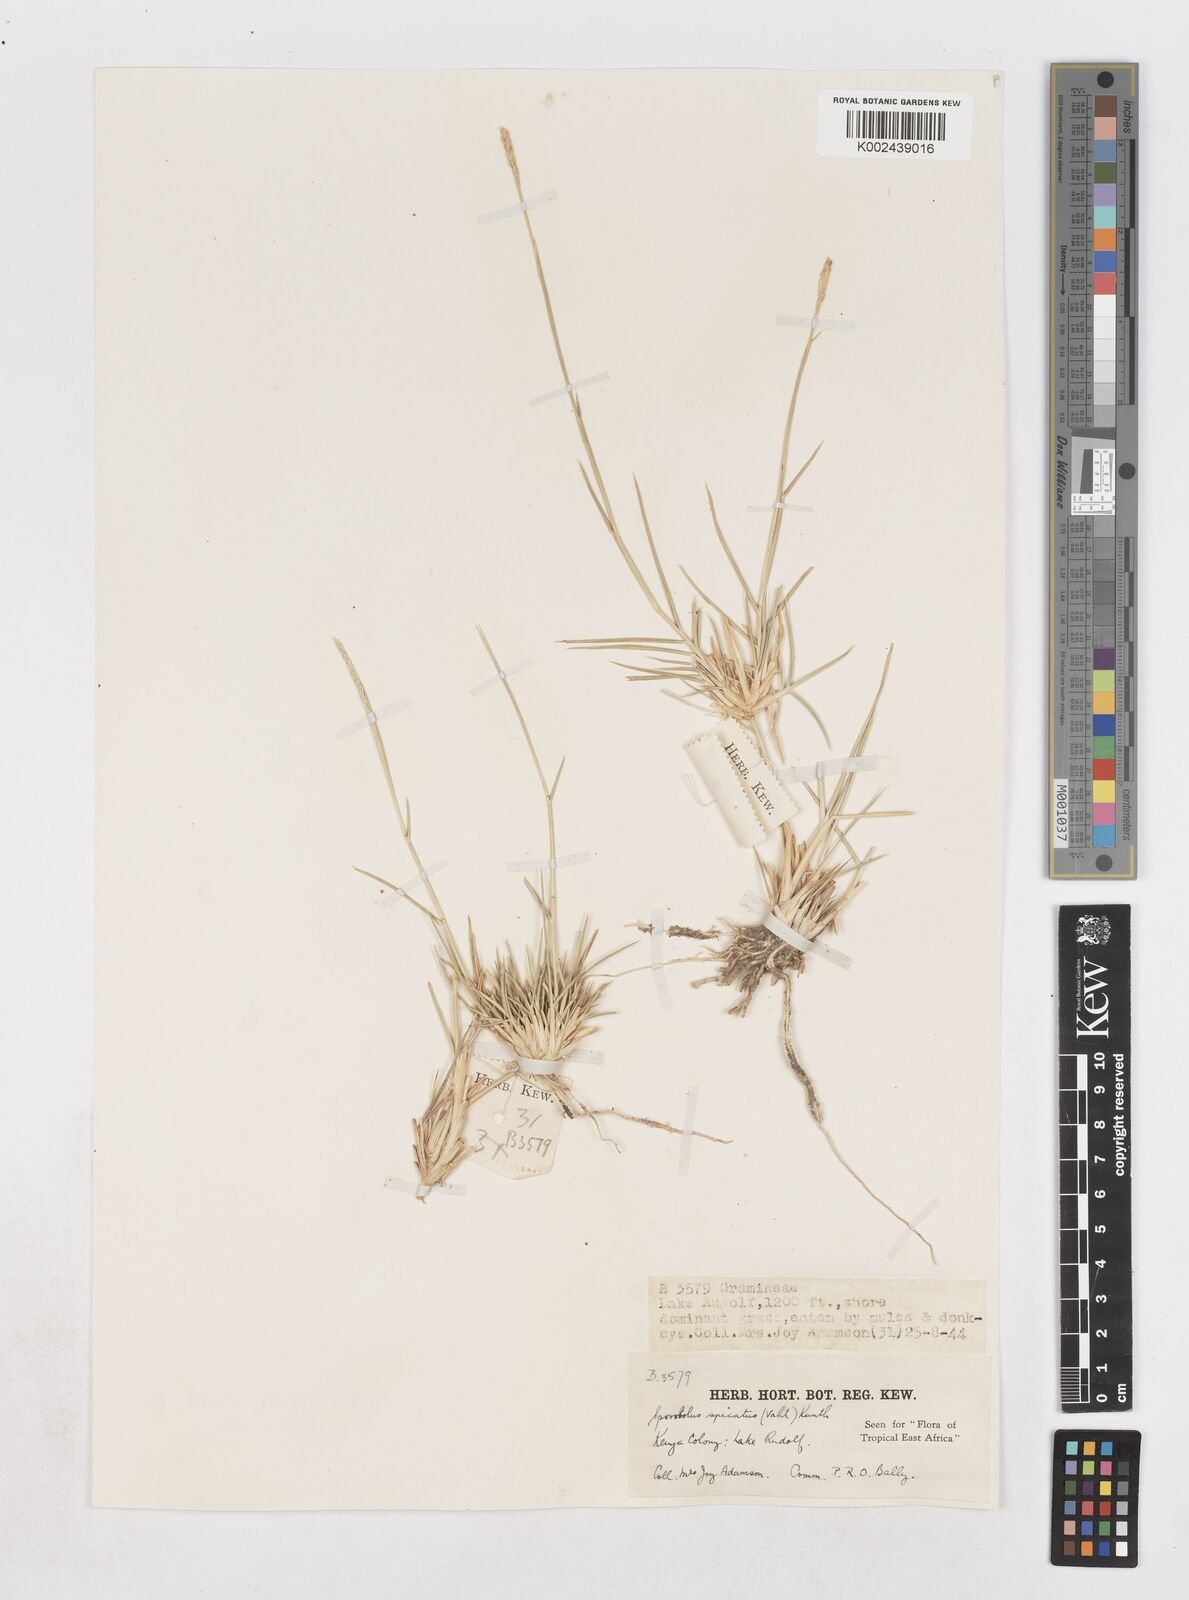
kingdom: Plantae
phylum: Tracheophyta
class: Liliopsida
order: Poales
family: Poaceae
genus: Sporobolus
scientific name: Sporobolus spicatus
